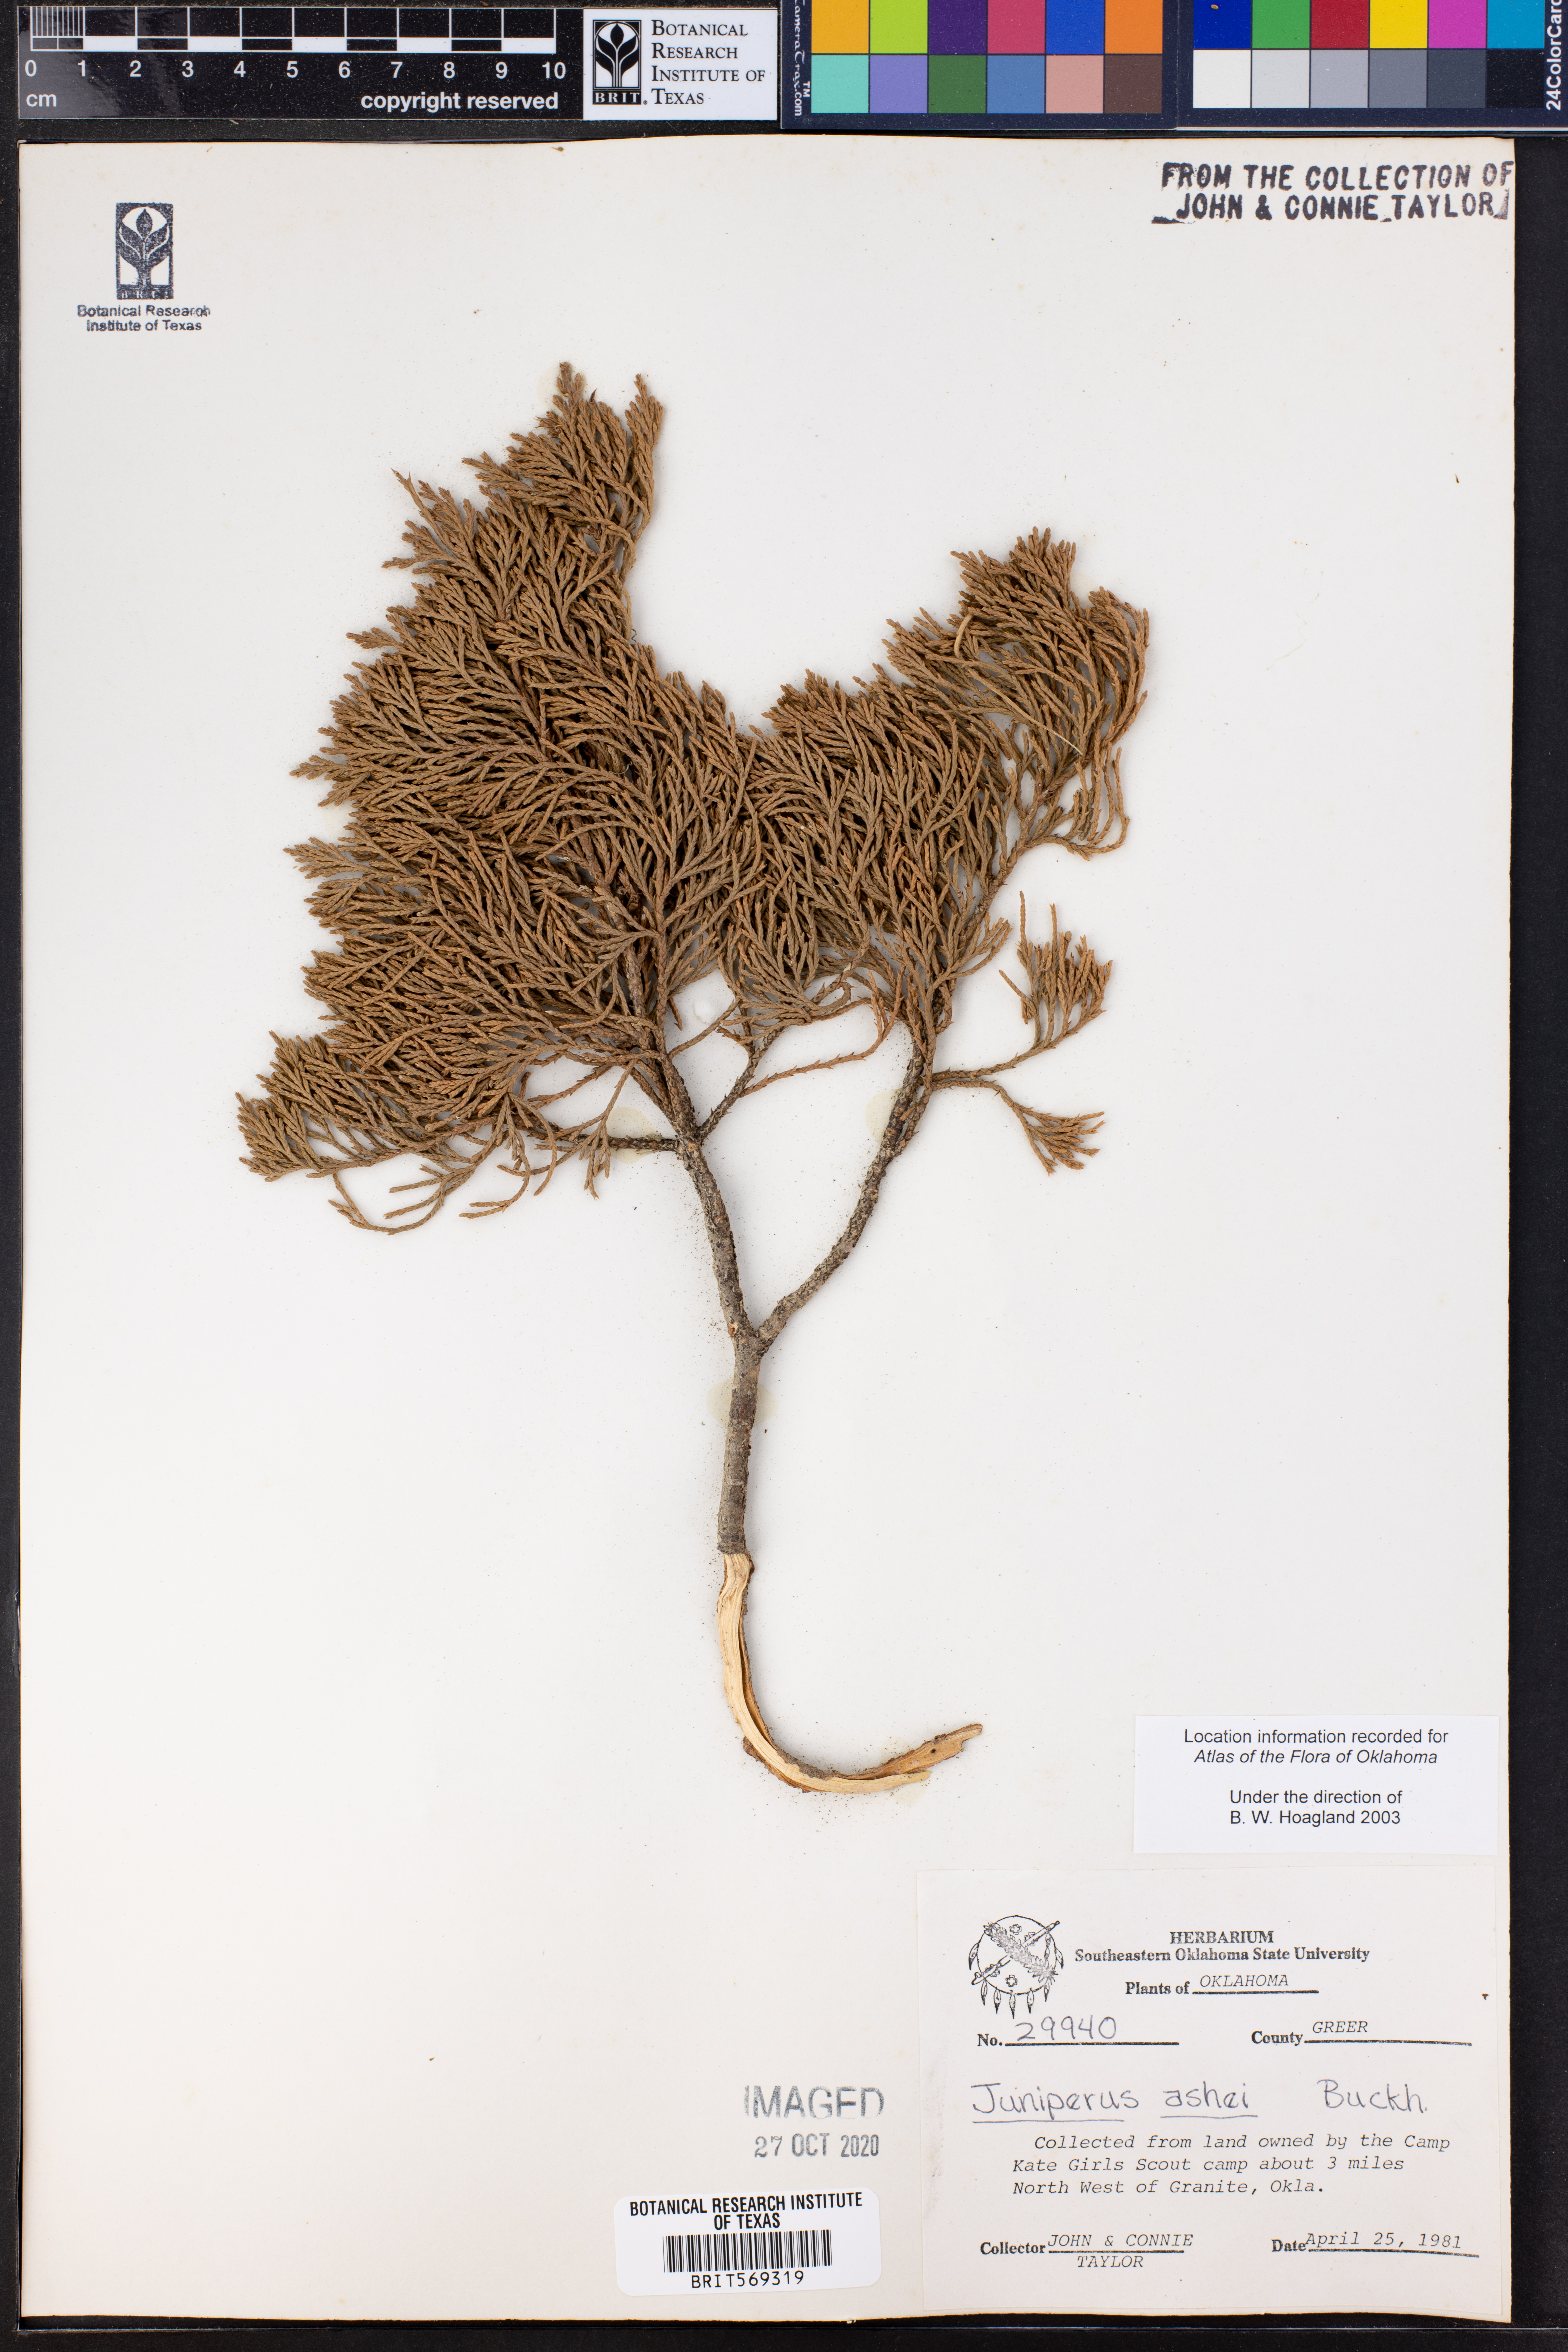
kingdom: Plantae
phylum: Tracheophyta
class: Pinopsida
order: Pinales
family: Cupressaceae
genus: Juniperus
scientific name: Juniperus ashei
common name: Mexican juniper
